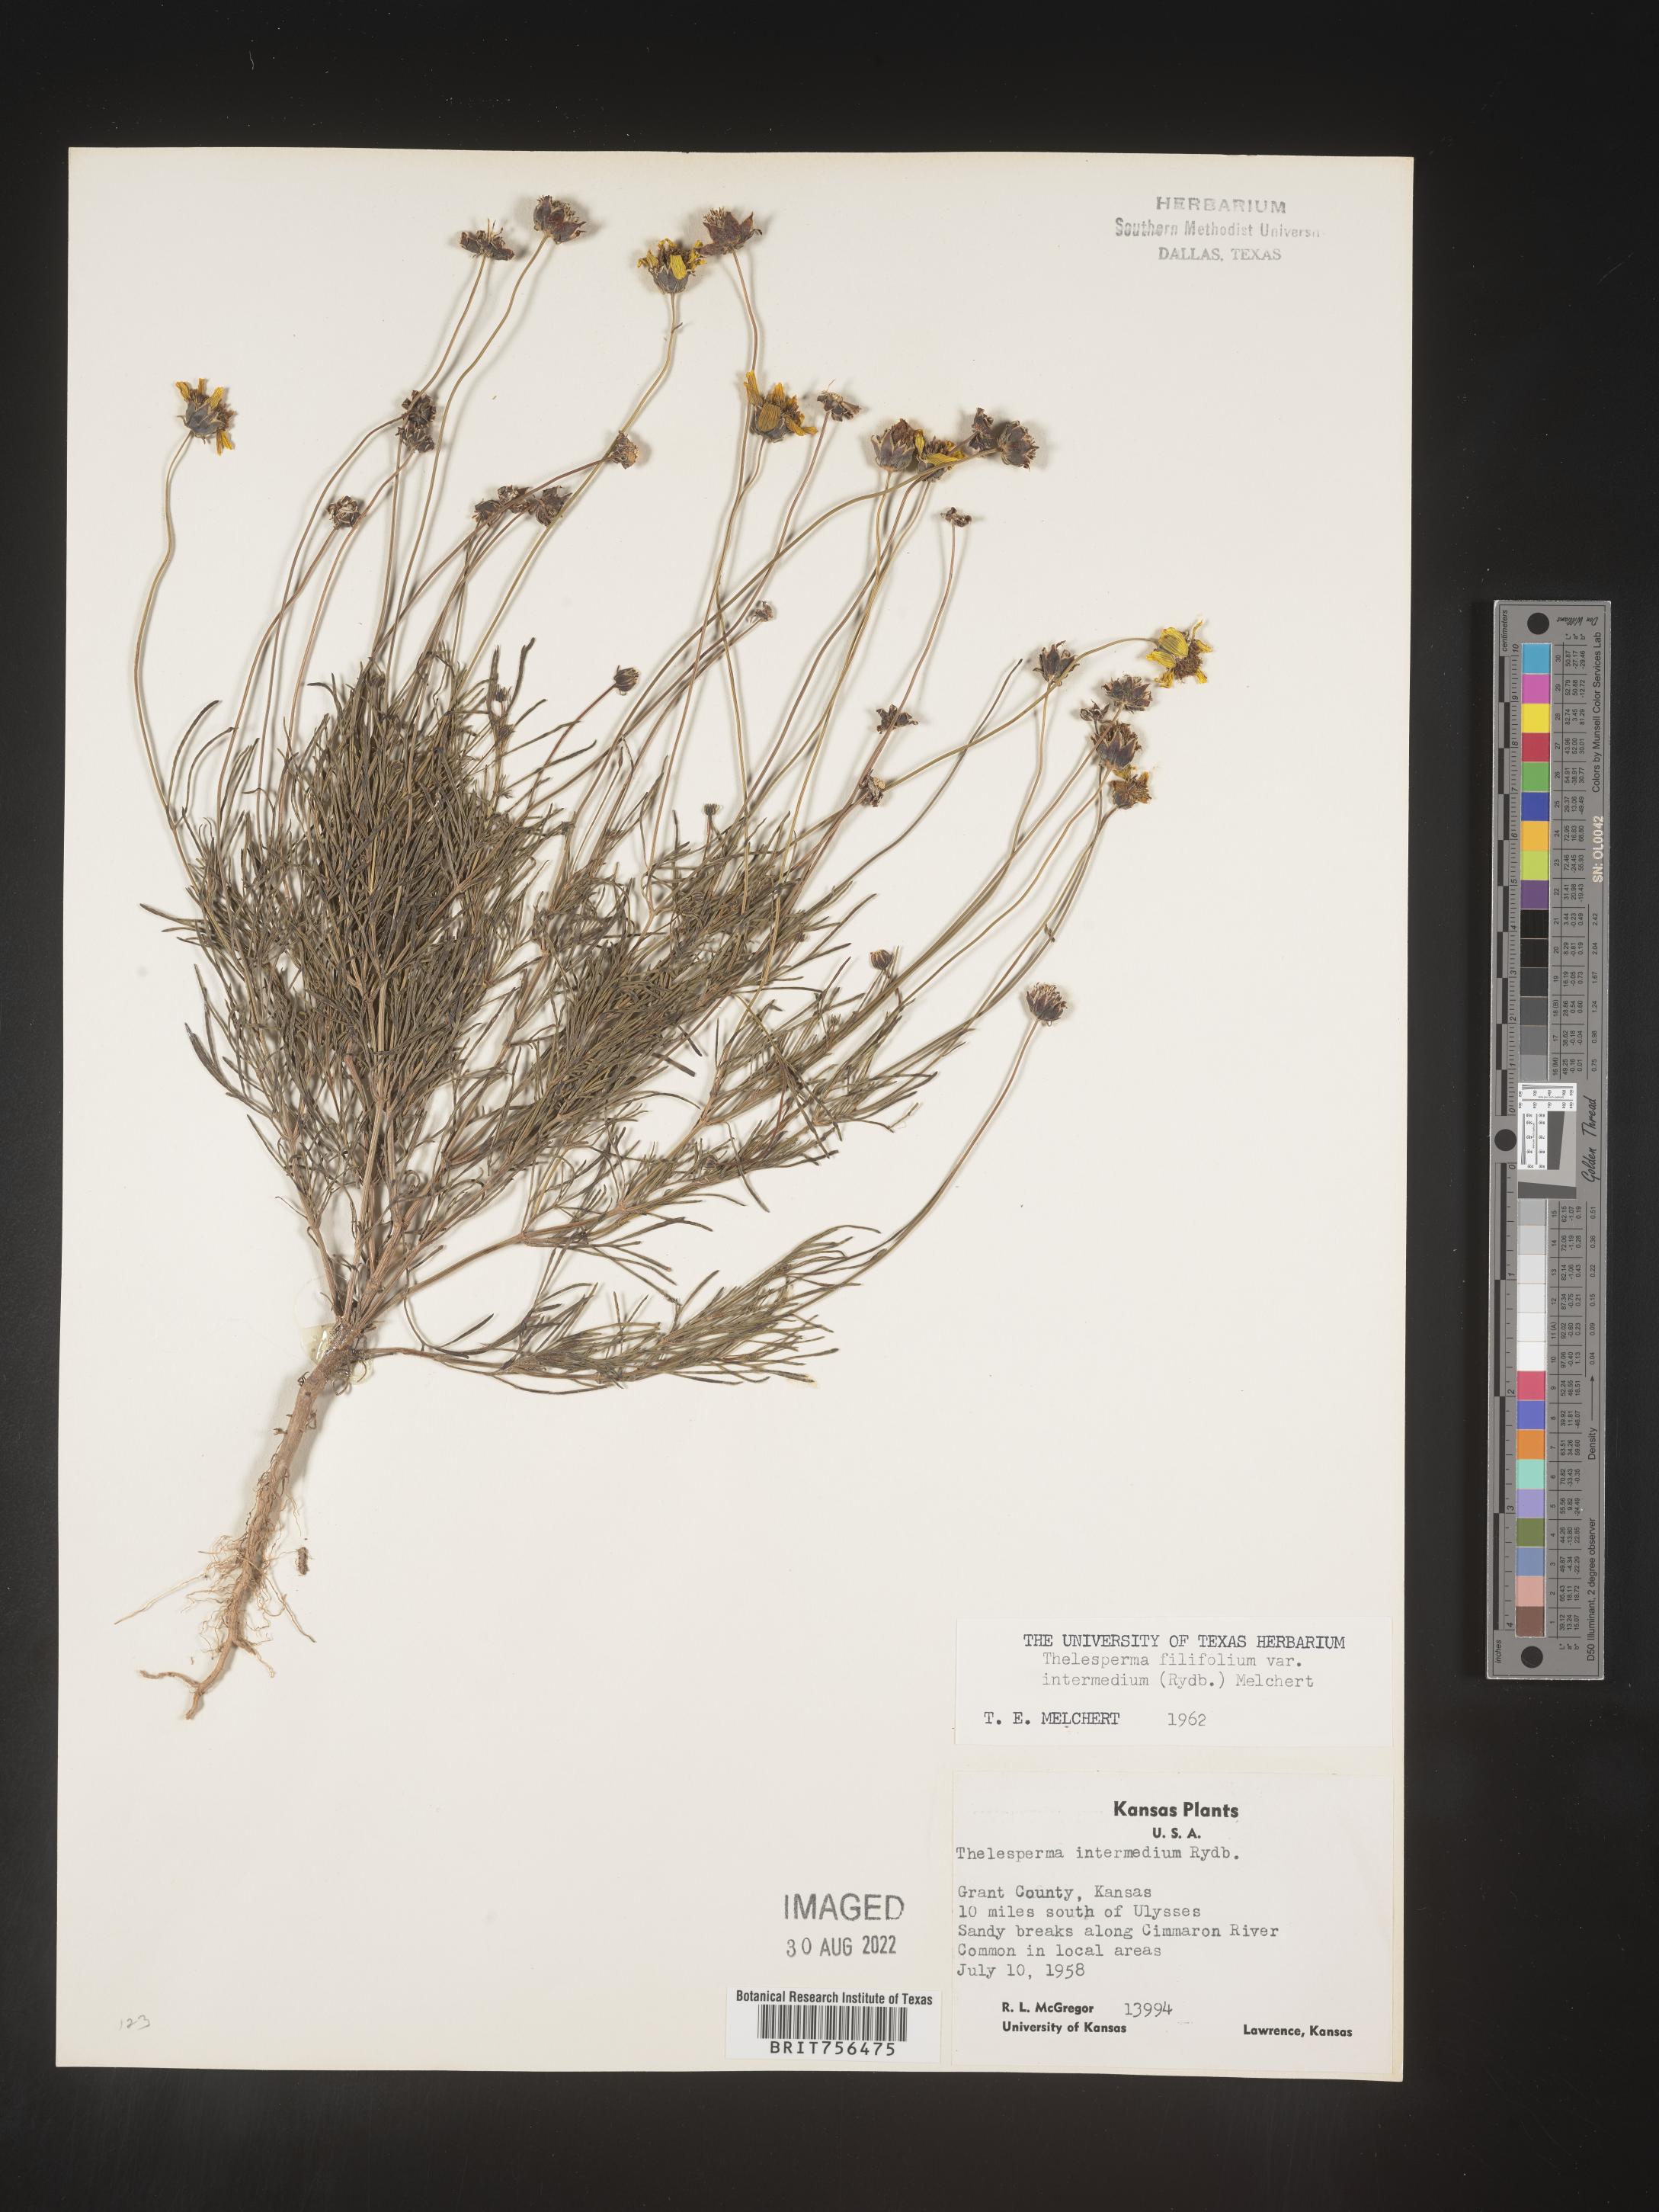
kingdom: Plantae
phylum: Tracheophyta
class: Magnoliopsida
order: Asterales
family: Asteraceae
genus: Thelesperma
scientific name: Thelesperma filifolium
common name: Stiff greenthread
